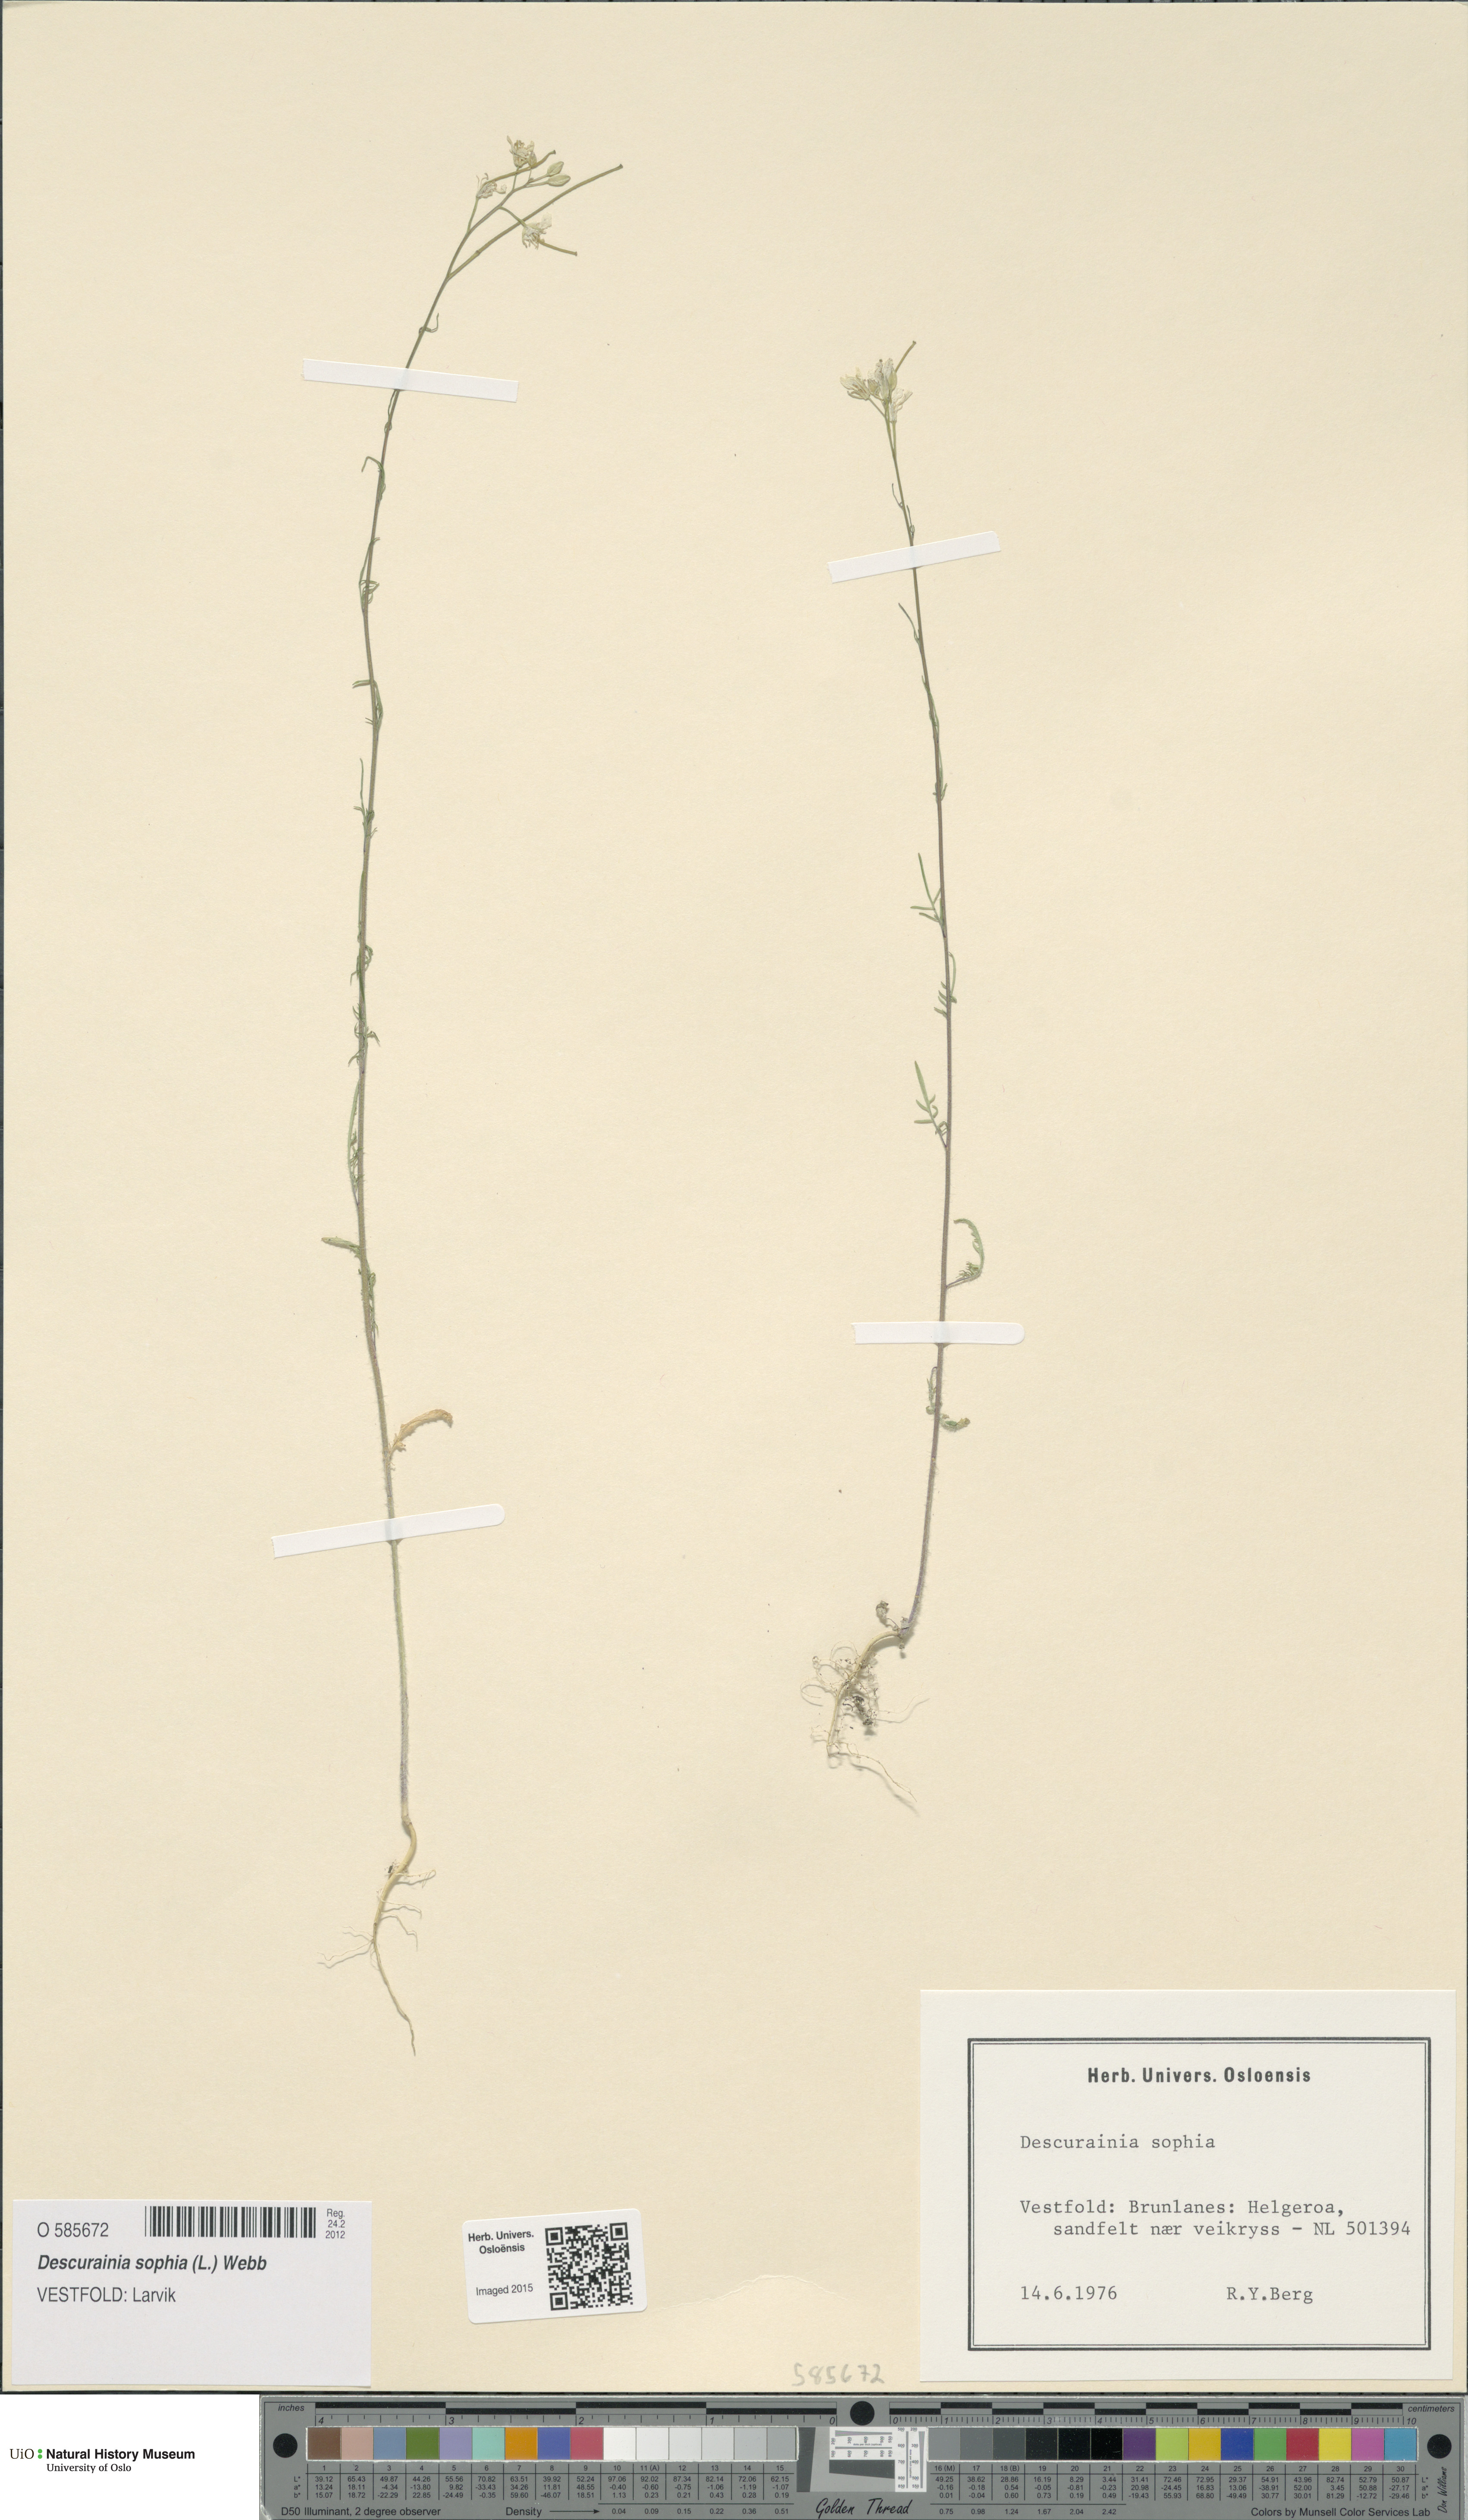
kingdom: Plantae
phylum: Tracheophyta
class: Magnoliopsida
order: Brassicales
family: Brassicaceae
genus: Descurainia
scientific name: Descurainia sophia
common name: Flixweed
